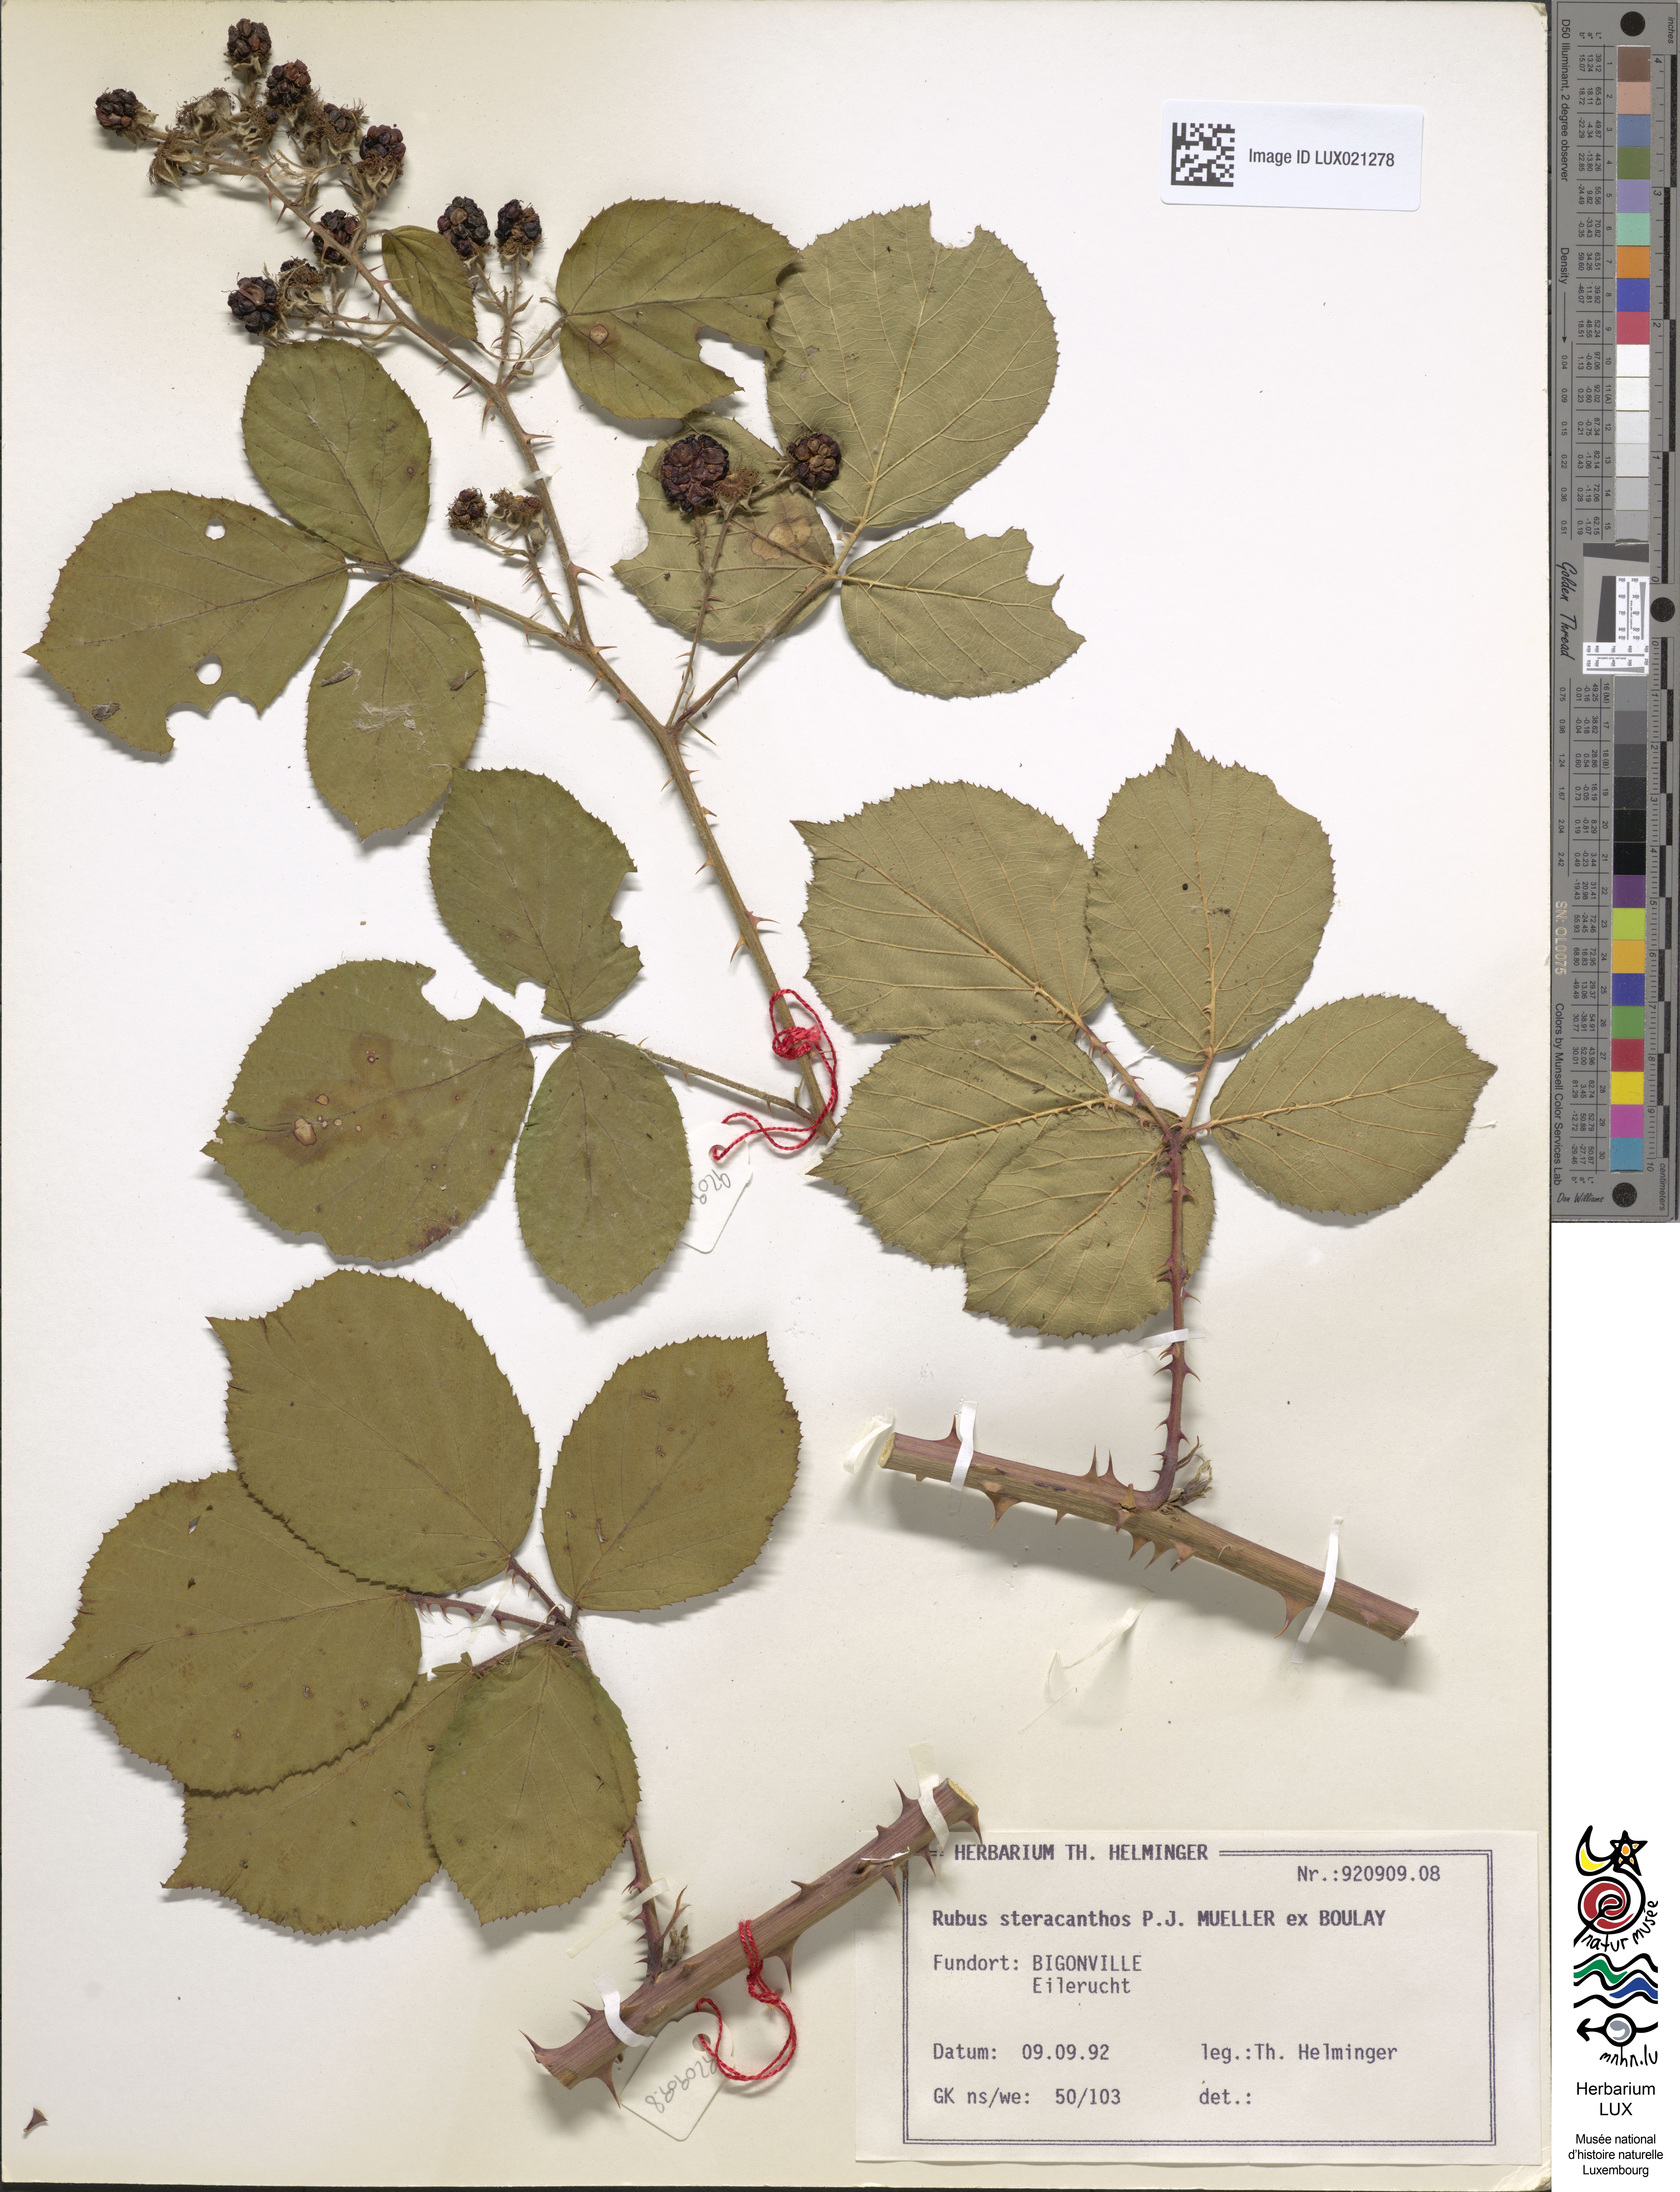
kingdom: Plantae
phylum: Tracheophyta
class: Magnoliopsida
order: Rosales
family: Rosaceae
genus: Rubus
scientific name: Rubus steracanthos
